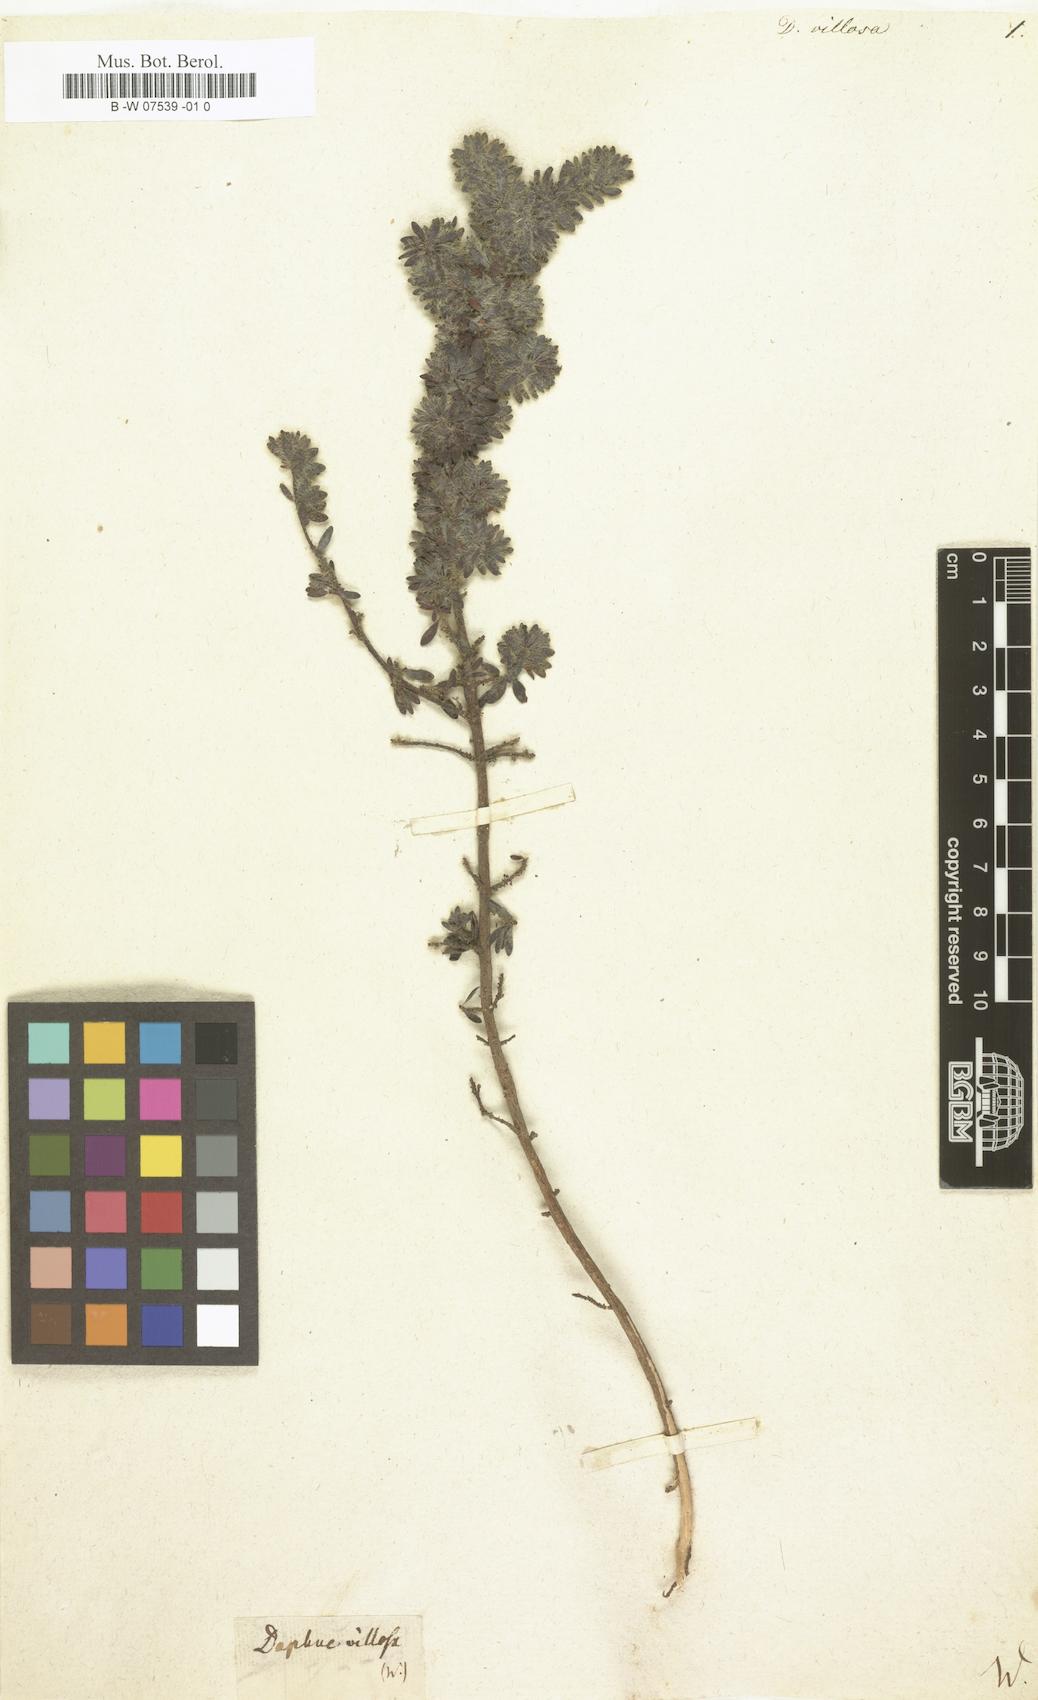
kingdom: Plantae
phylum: Tracheophyta
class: Magnoliopsida
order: Malvales
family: Thymelaeaceae
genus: Thymelaea
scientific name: Thymelaea villosa
